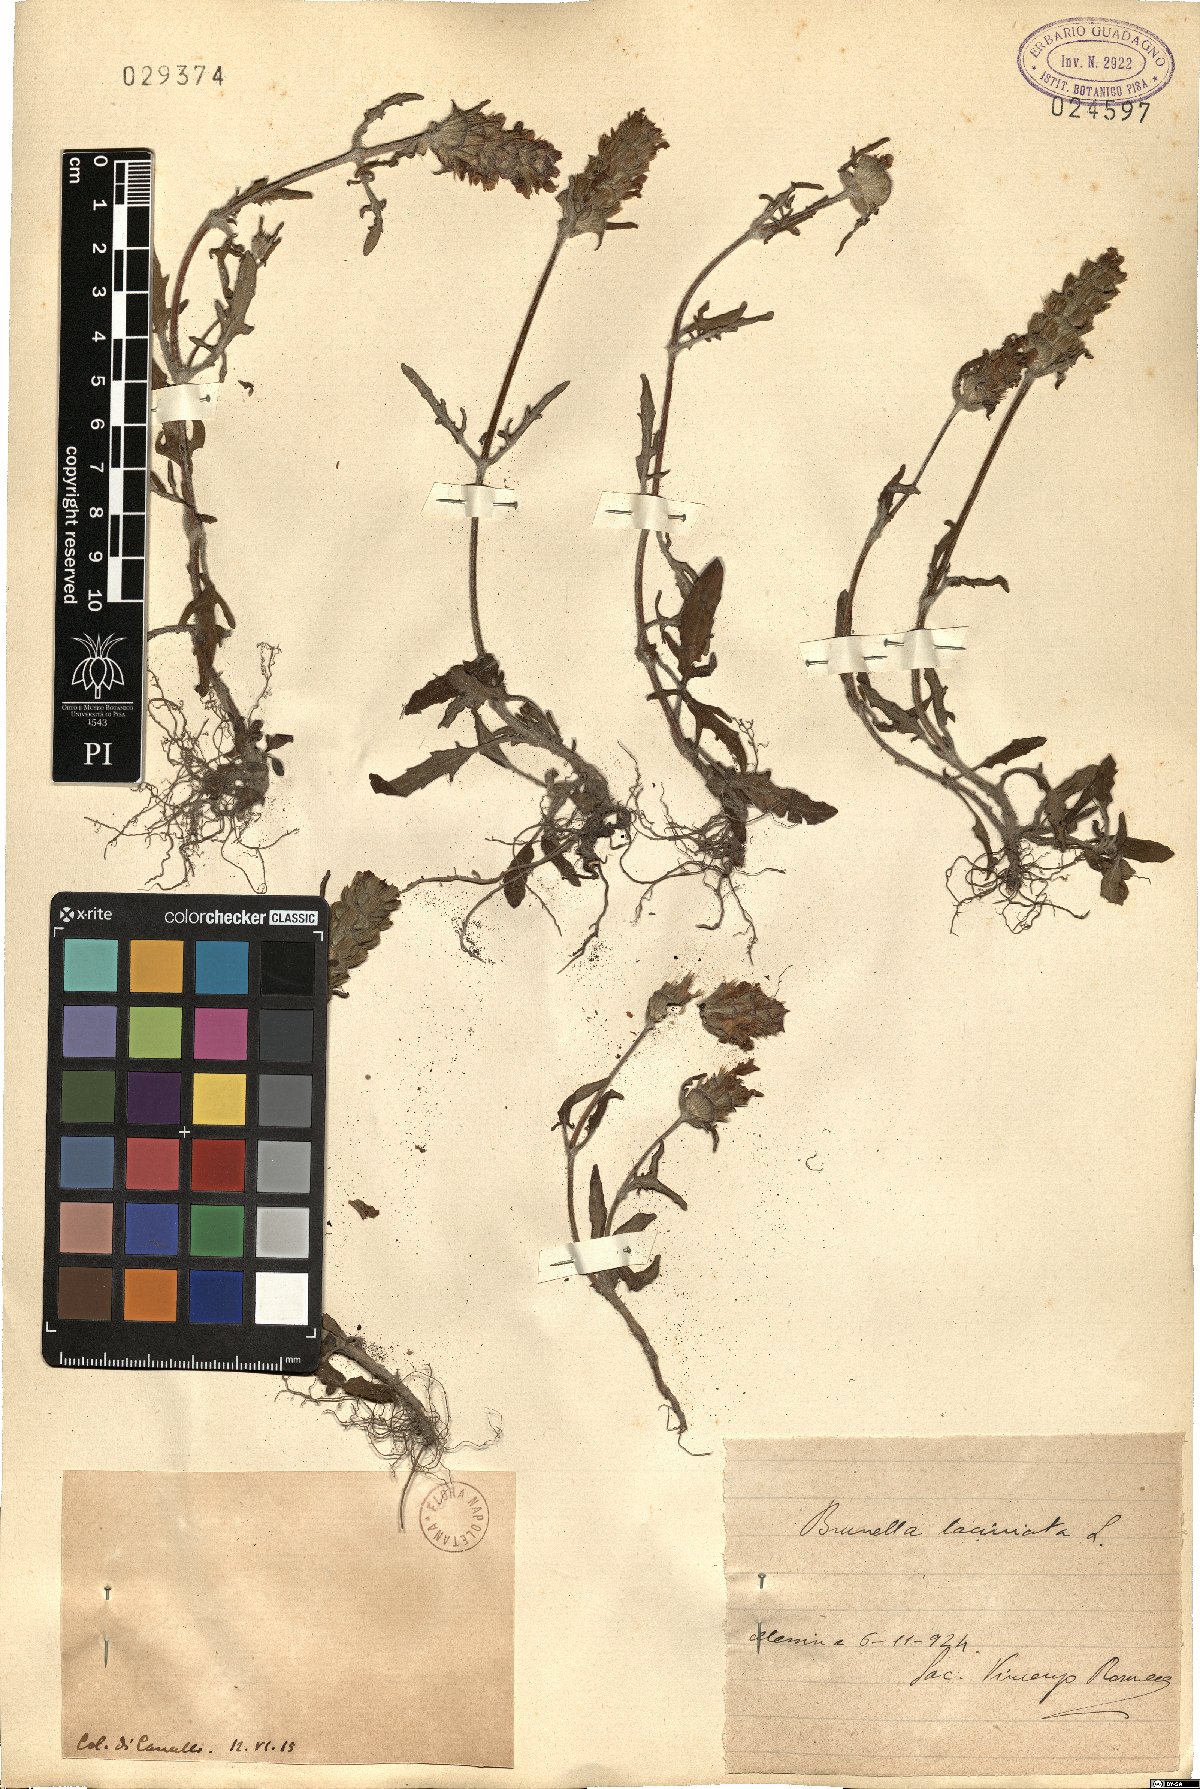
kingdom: Plantae
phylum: Tracheophyta
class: Magnoliopsida
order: Lamiales
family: Lamiaceae
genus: Prunella
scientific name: Prunella
